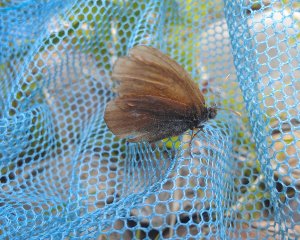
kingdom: Animalia
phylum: Arthropoda
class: Insecta
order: Lepidoptera
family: Nymphalidae
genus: Coenonympha
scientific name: Coenonympha tullia
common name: Large Heath
